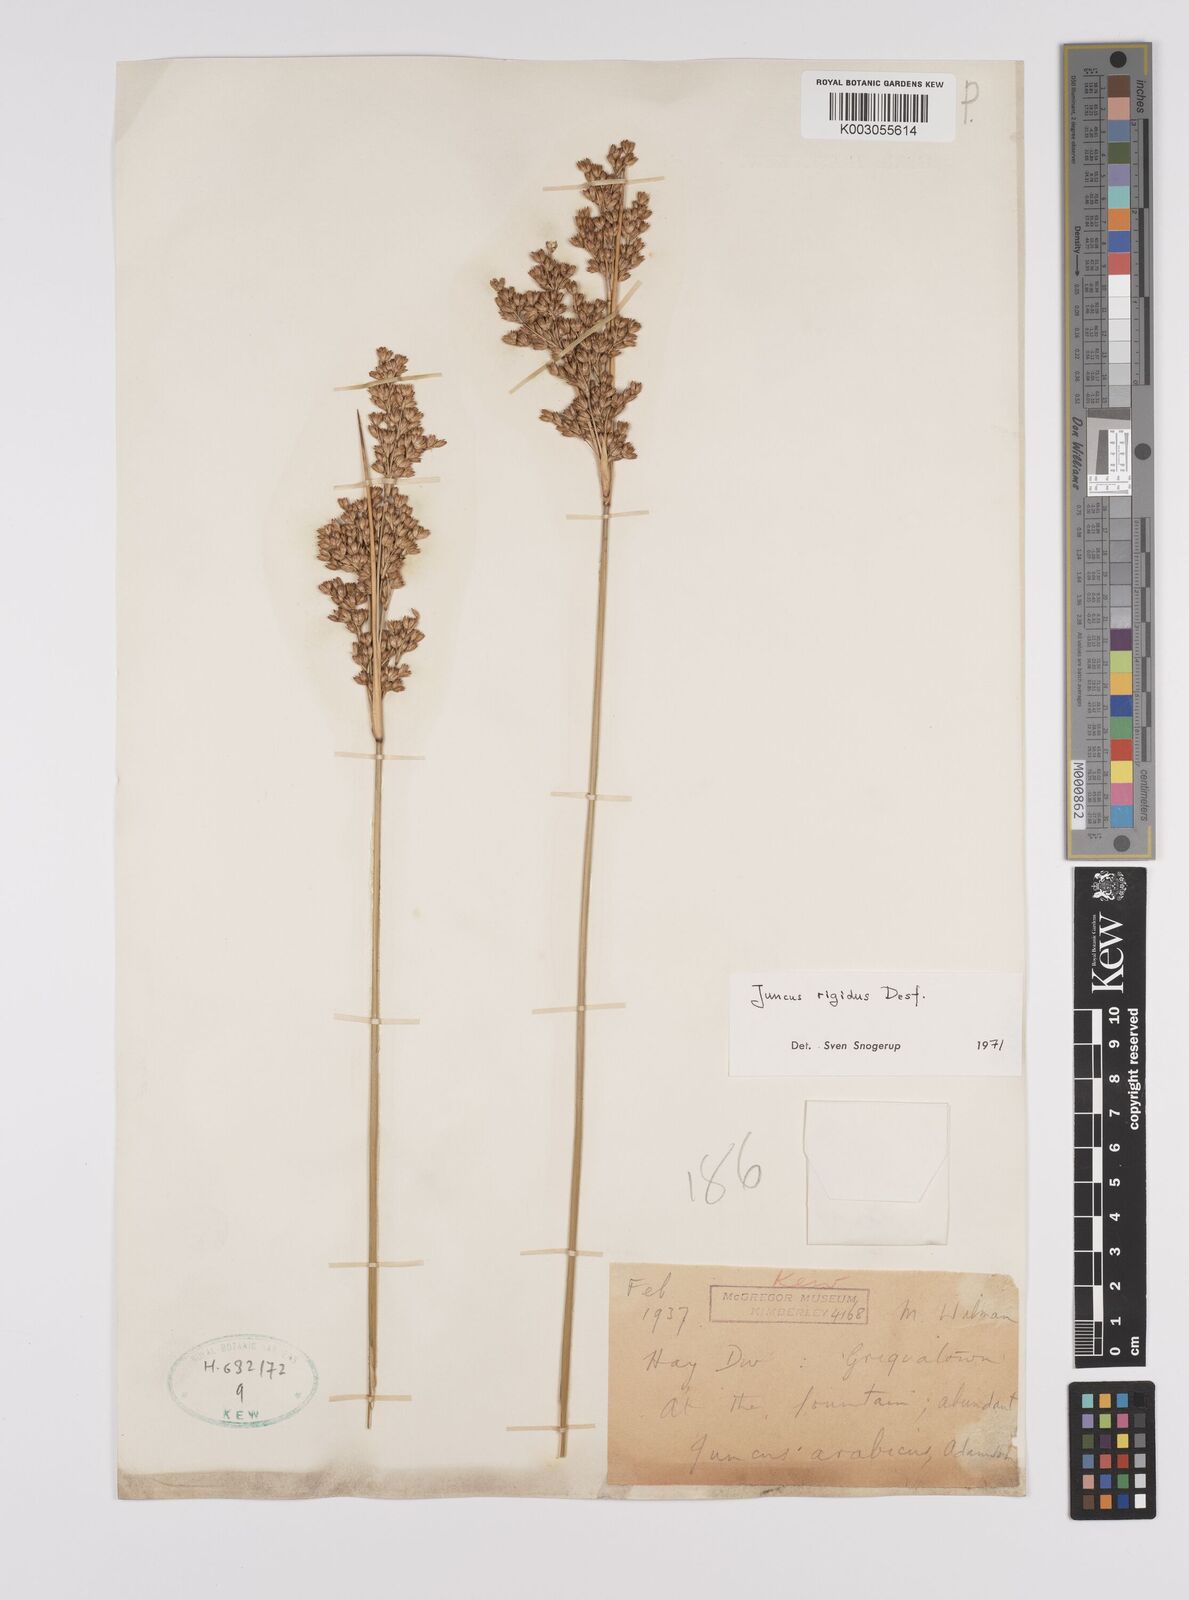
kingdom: Plantae
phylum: Tracheophyta
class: Liliopsida
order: Poales
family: Juncaceae
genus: Juncus
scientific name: Juncus rigidus
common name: Hard sea rush
